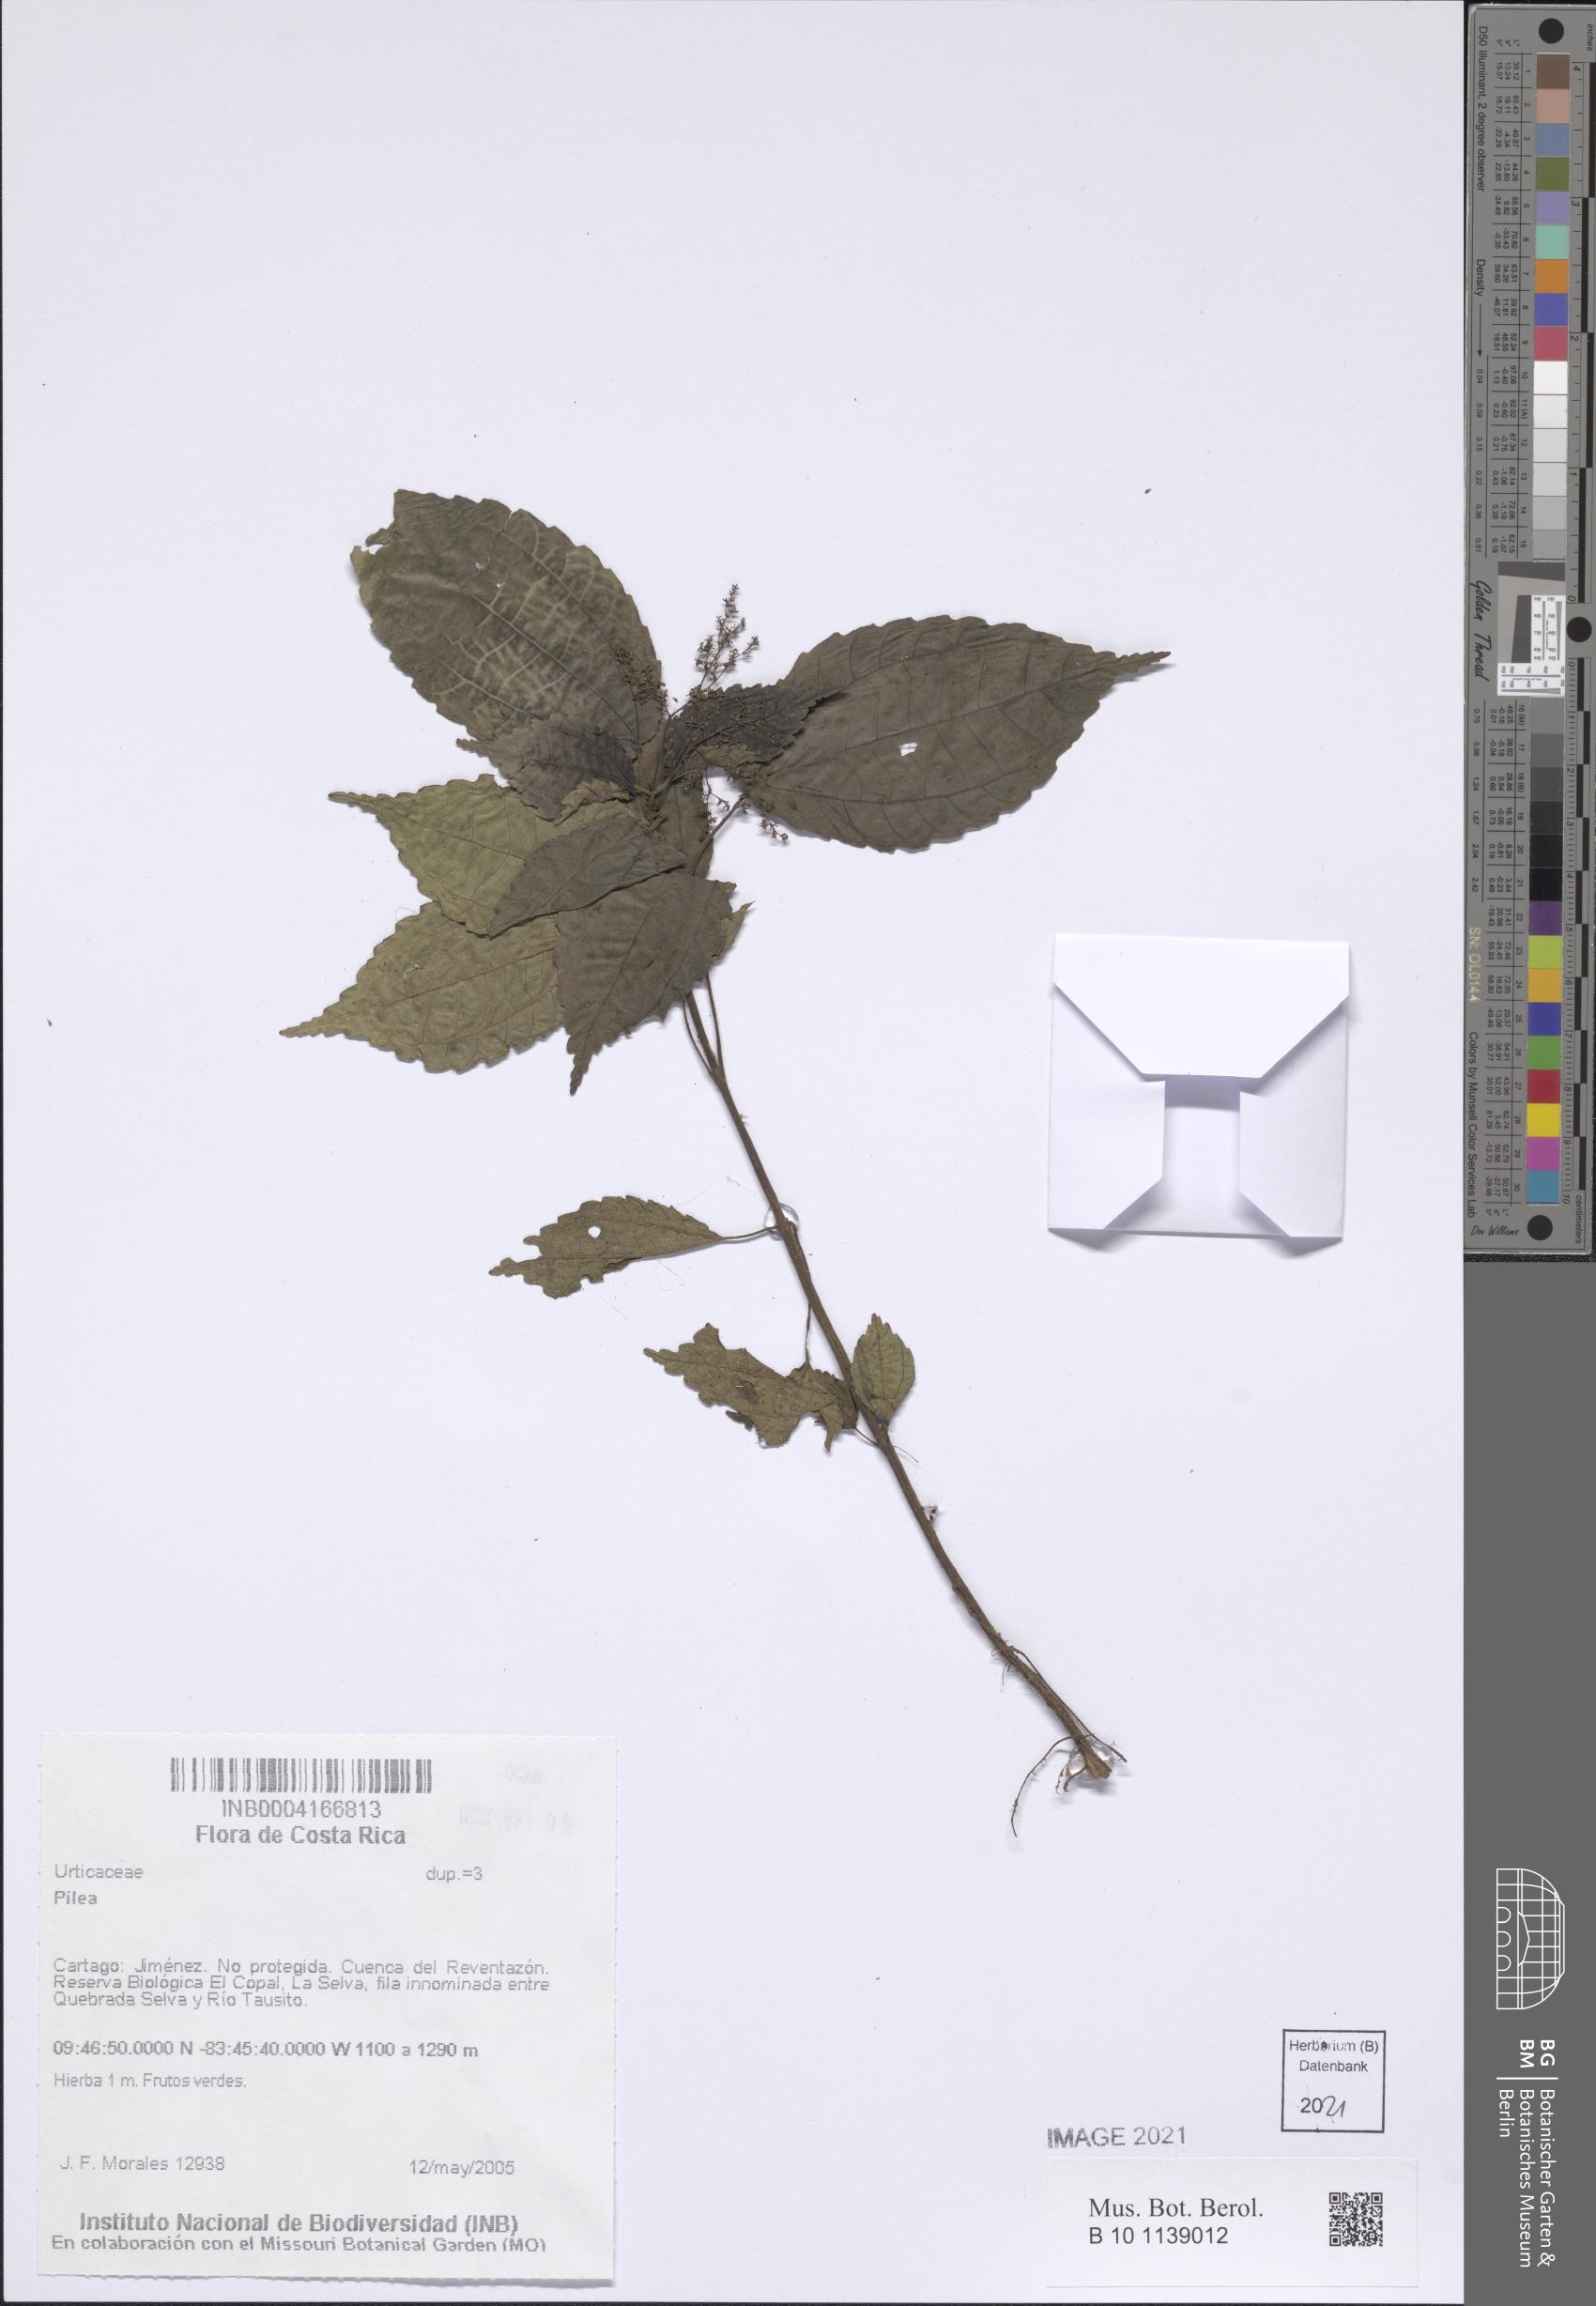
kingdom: Plantae
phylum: Tracheophyta
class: Magnoliopsida
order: Rosales
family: Urticaceae
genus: Pilea
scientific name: Pilea
